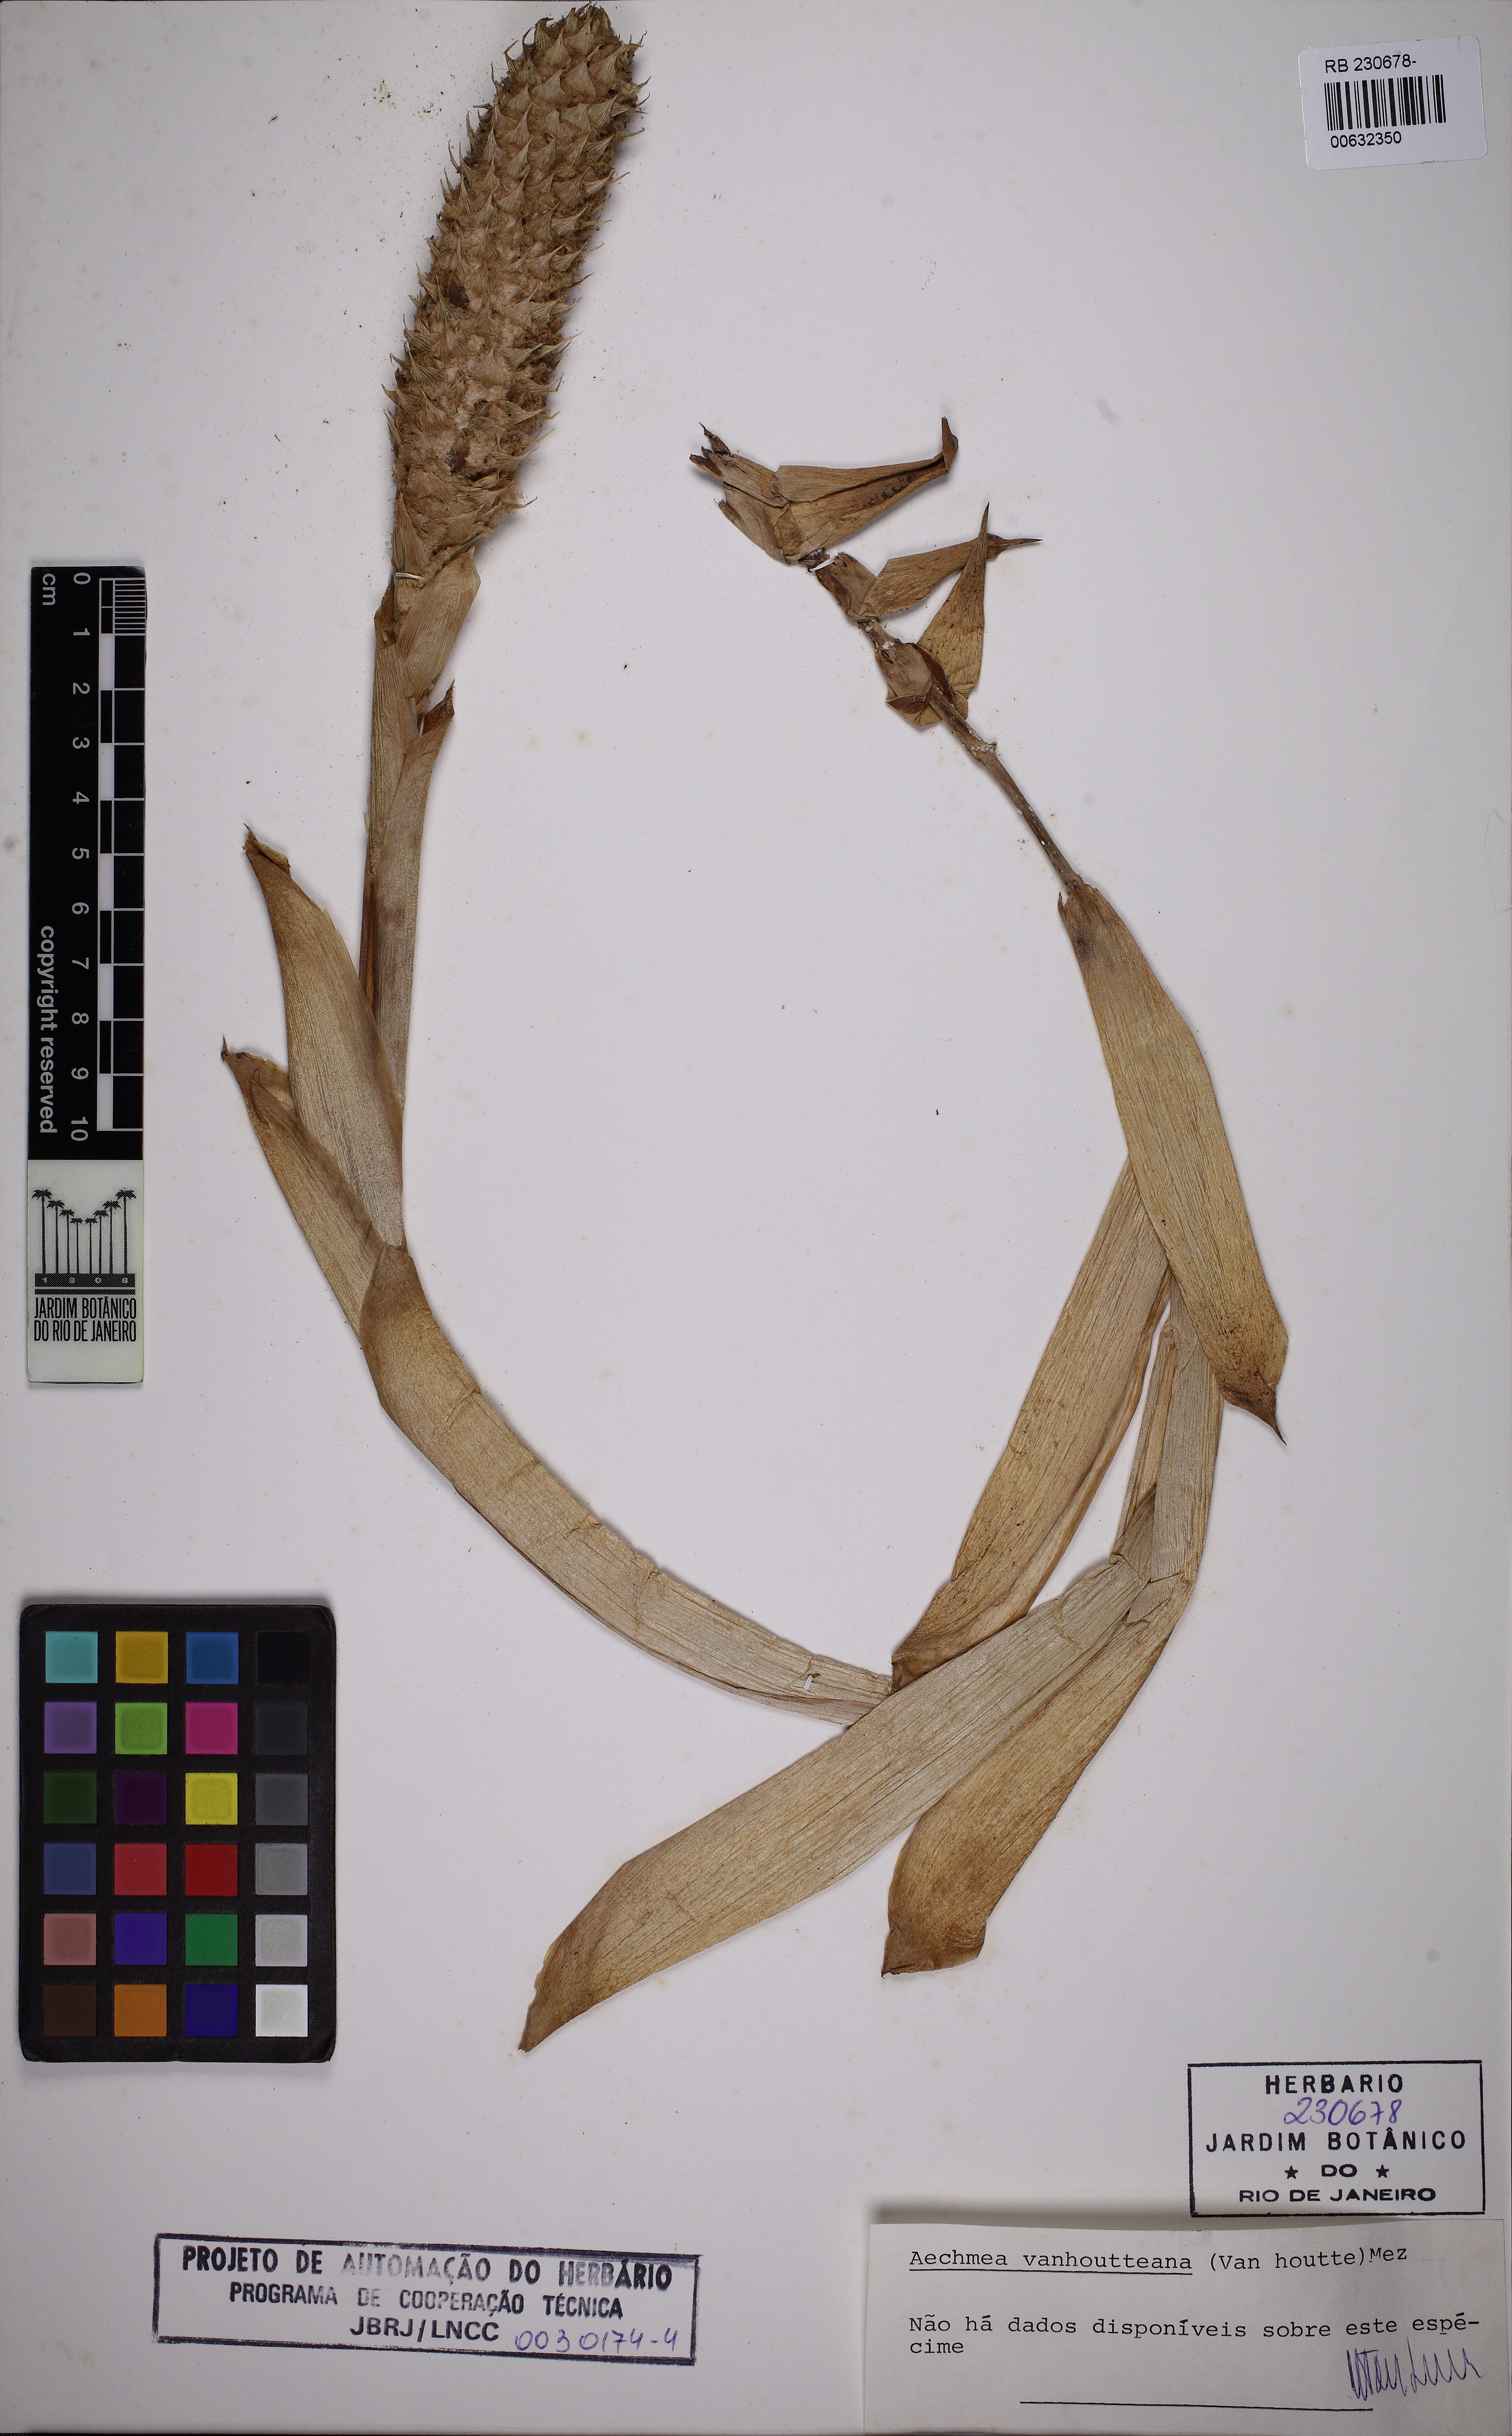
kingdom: Plantae
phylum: Tracheophyta
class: Liliopsida
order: Poales
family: Bromeliaceae
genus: Aechmea
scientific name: Aechmea vanhoutteana
